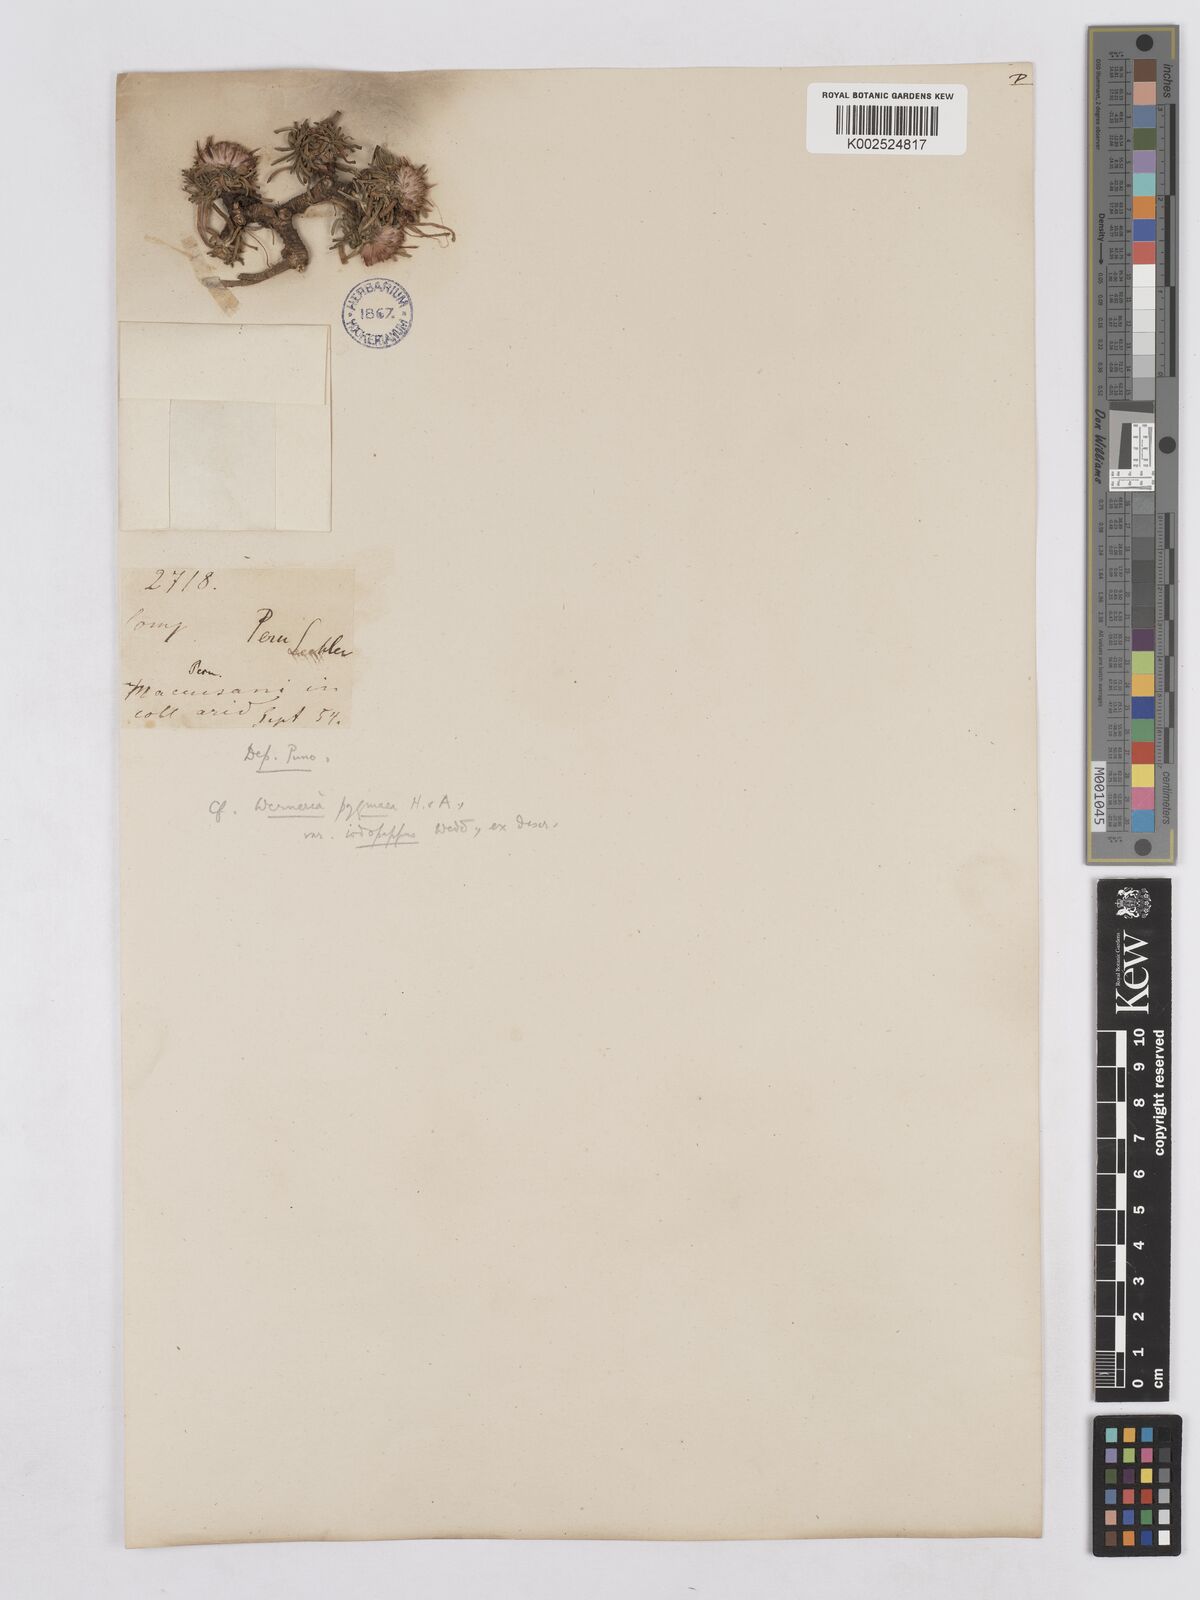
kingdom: Plantae
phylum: Tracheophyta
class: Magnoliopsida
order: Asterales
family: Asteraceae
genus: Rockhausenia
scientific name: Rockhausenia pygmaea
